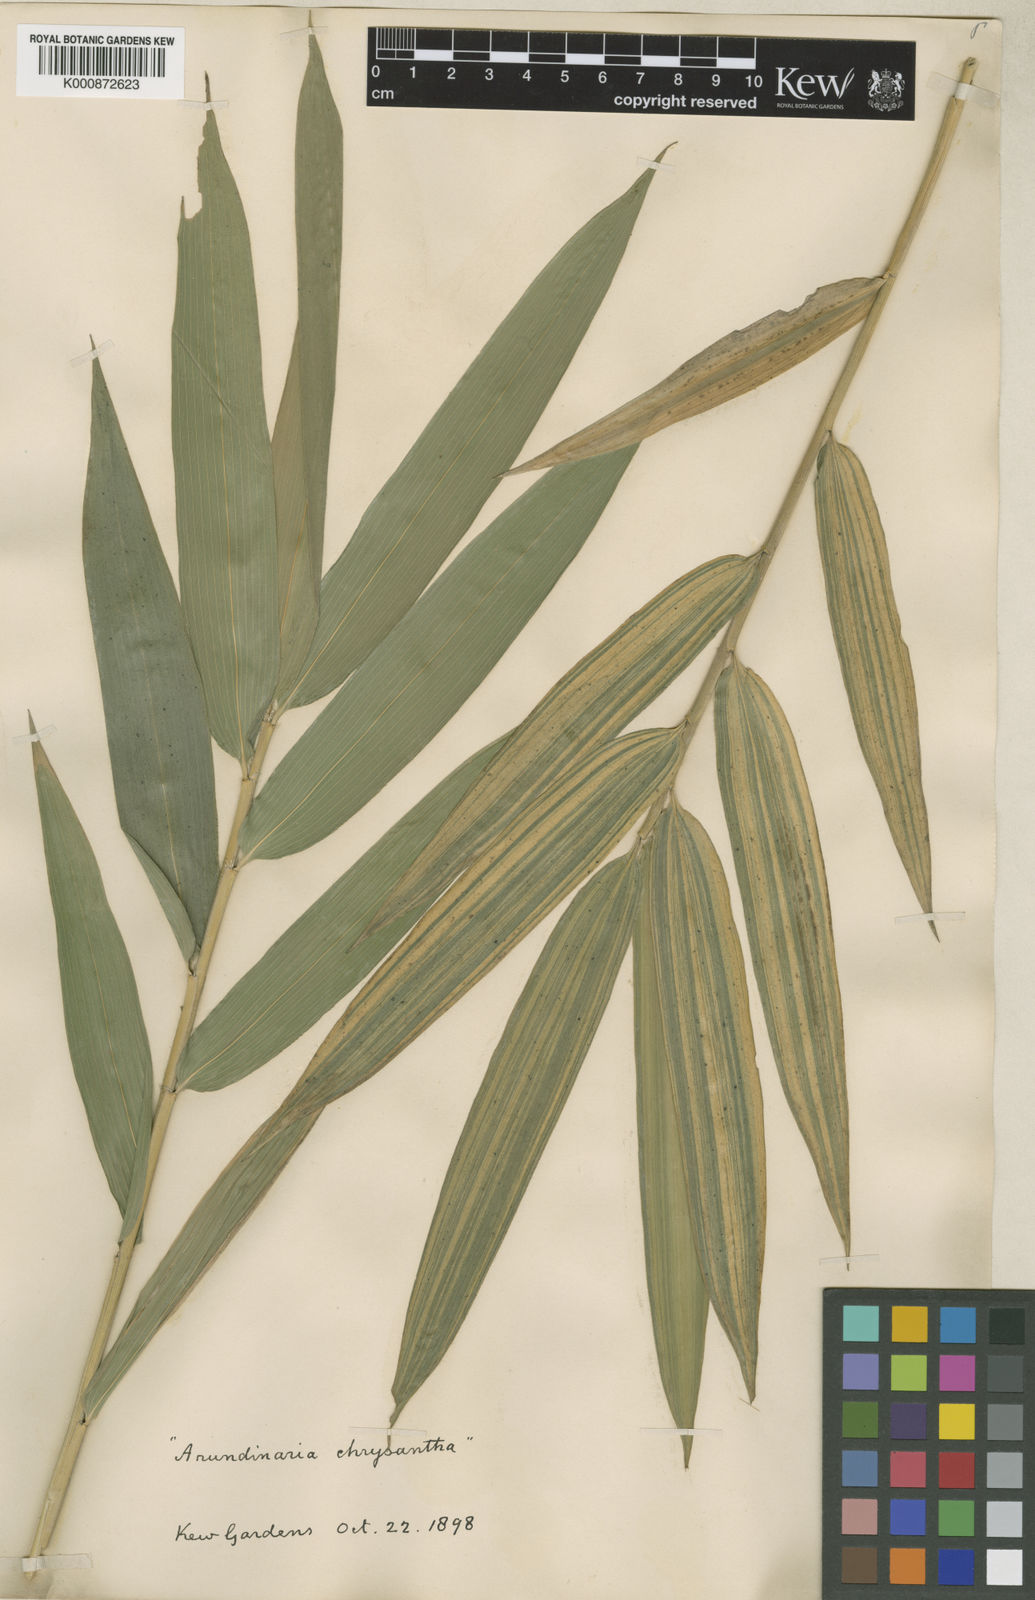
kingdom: Plantae
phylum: Tracheophyta
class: Liliopsida
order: Poales
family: Poaceae
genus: Pleioblastus
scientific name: Pleioblastus argenteostriatus
